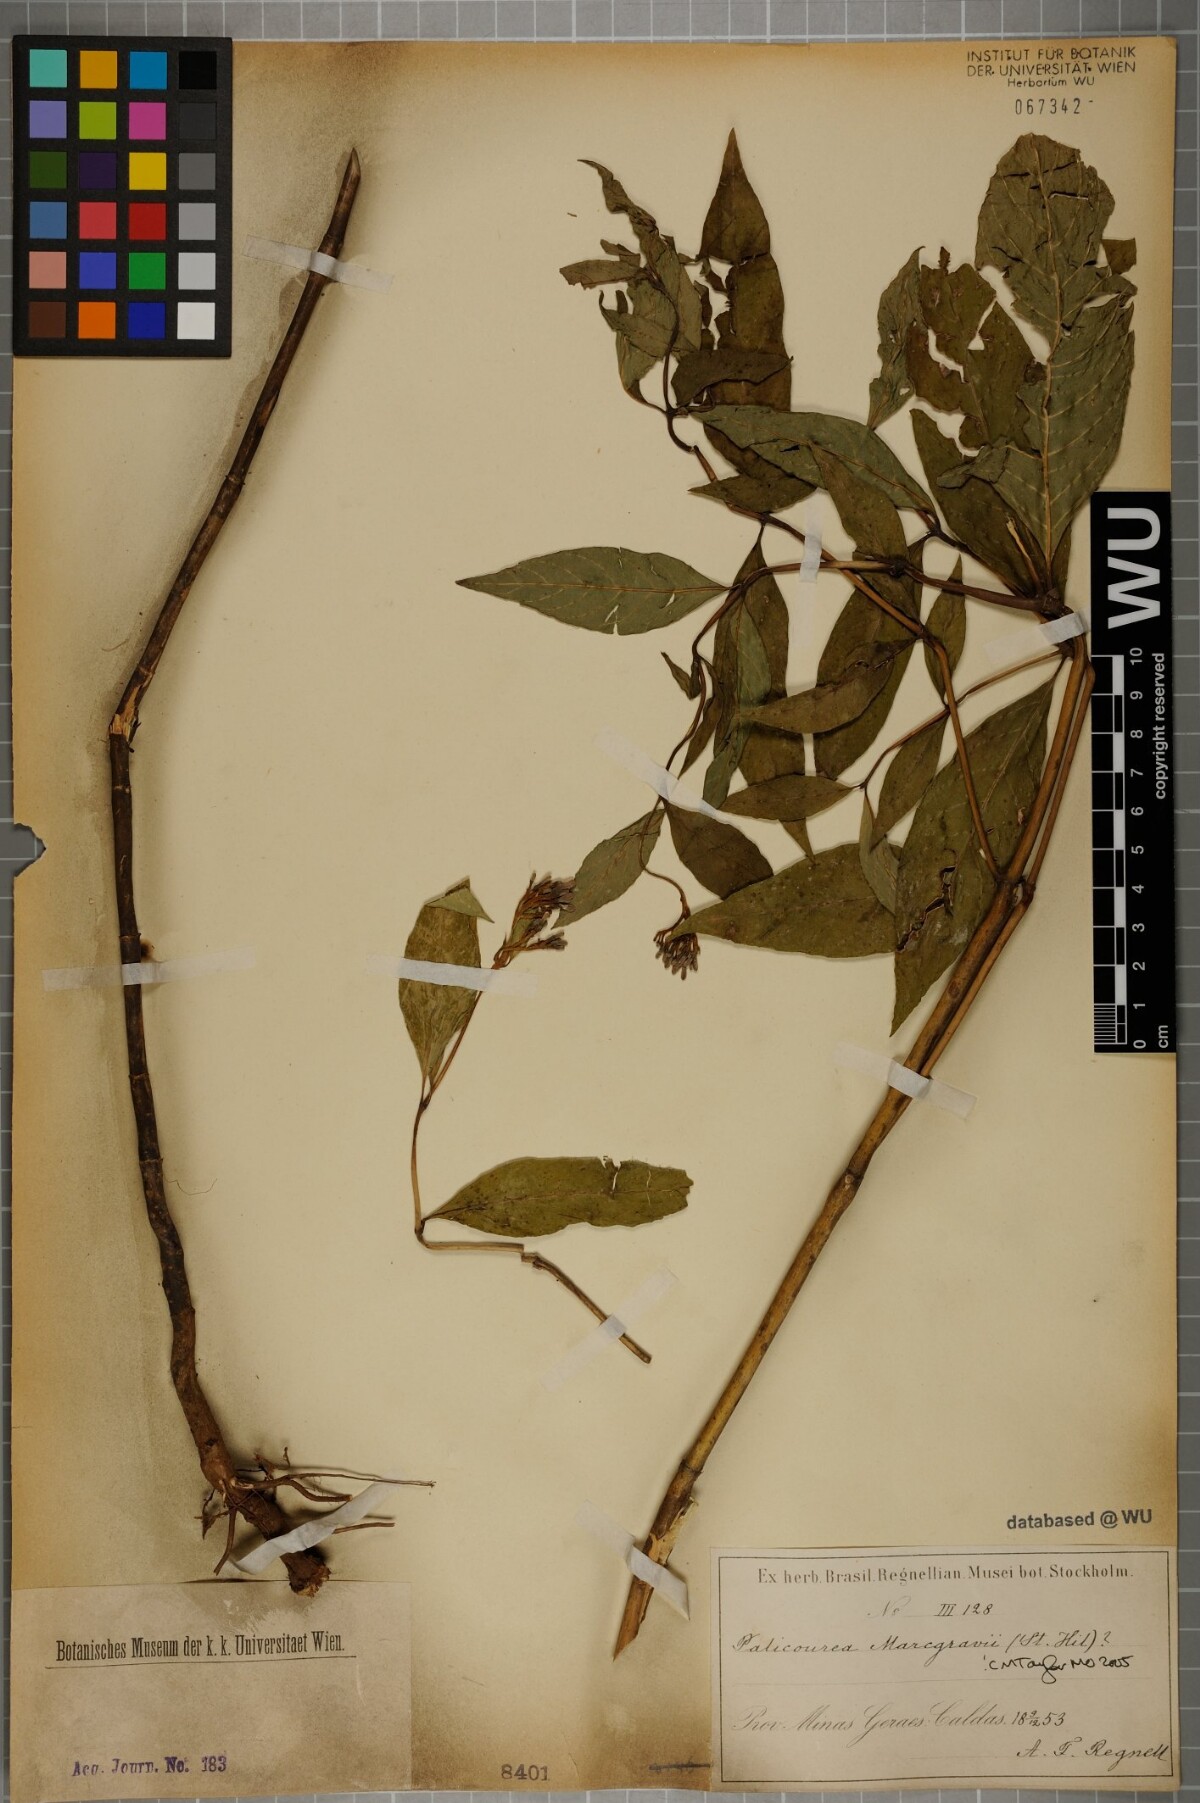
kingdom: Plantae
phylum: Tracheophyta
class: Magnoliopsida
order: Gentianales
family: Rubiaceae
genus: Palicourea
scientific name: Palicourea marcgravii
